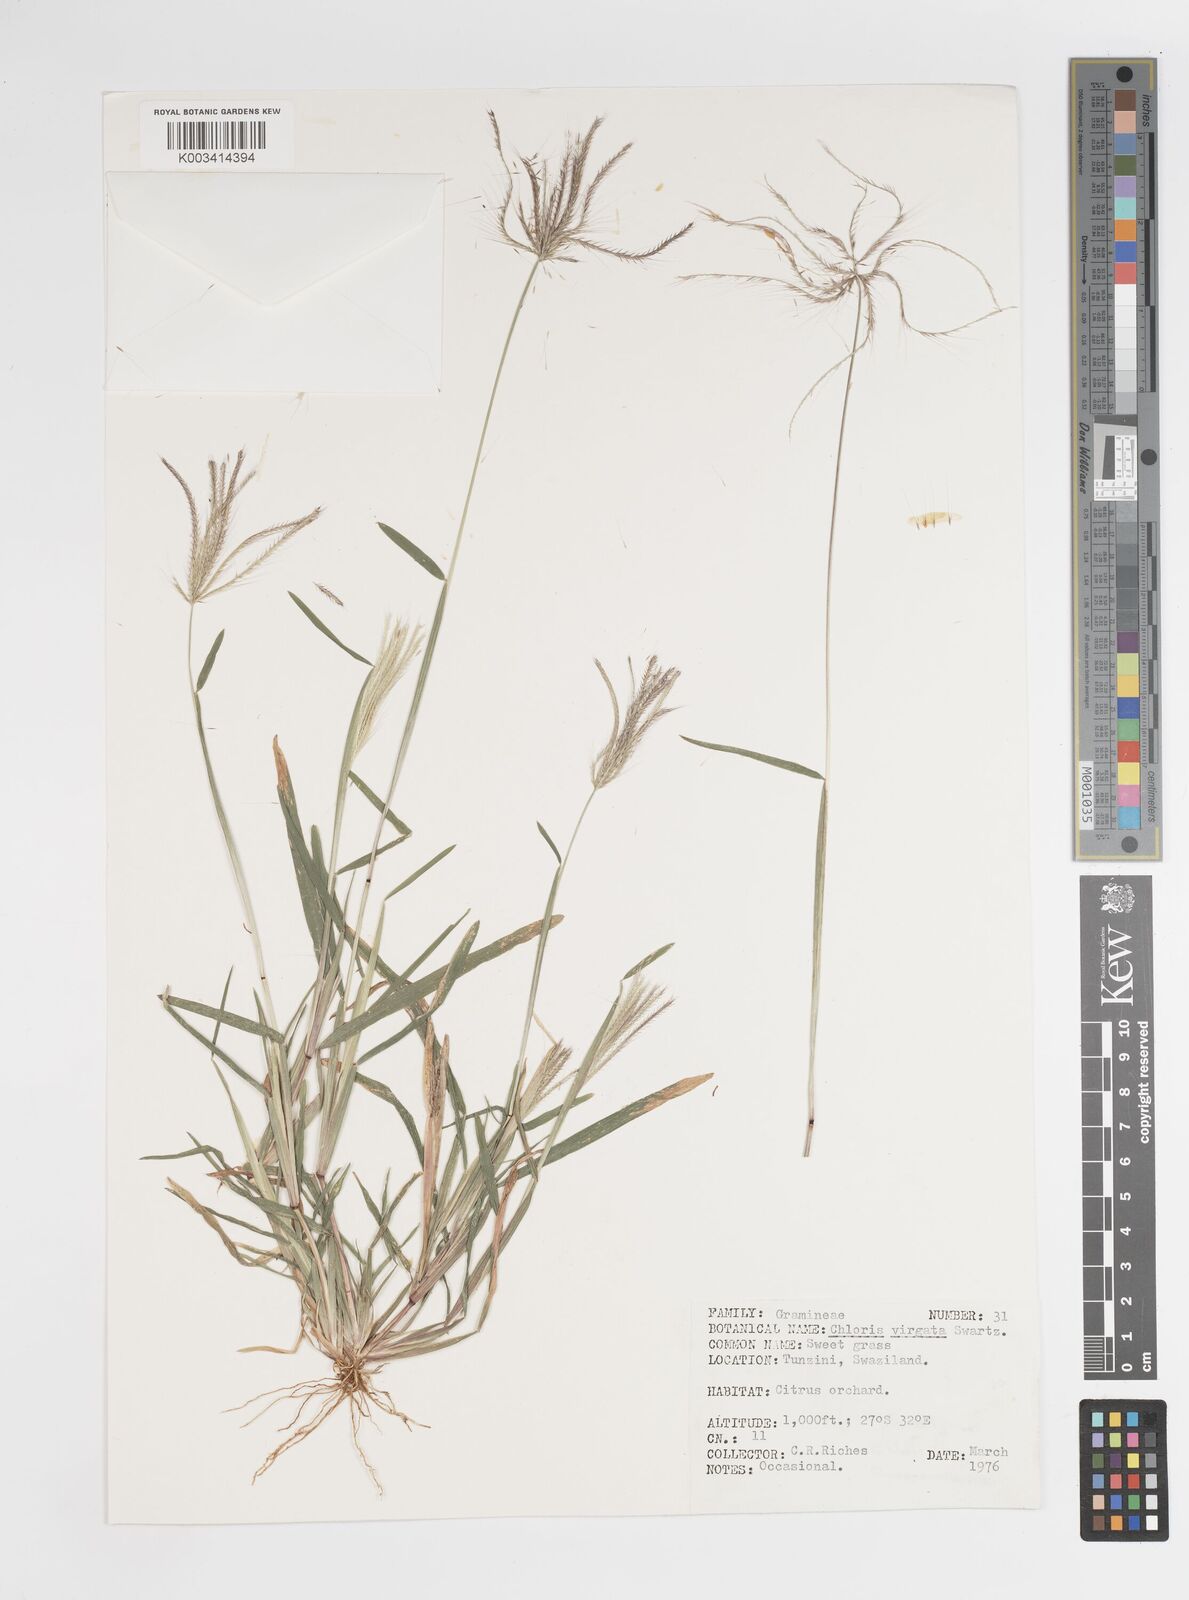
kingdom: Plantae
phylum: Tracheophyta
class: Liliopsida
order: Poales
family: Poaceae
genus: Chloris
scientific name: Chloris virgata
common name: Feathery rhodes-grass
